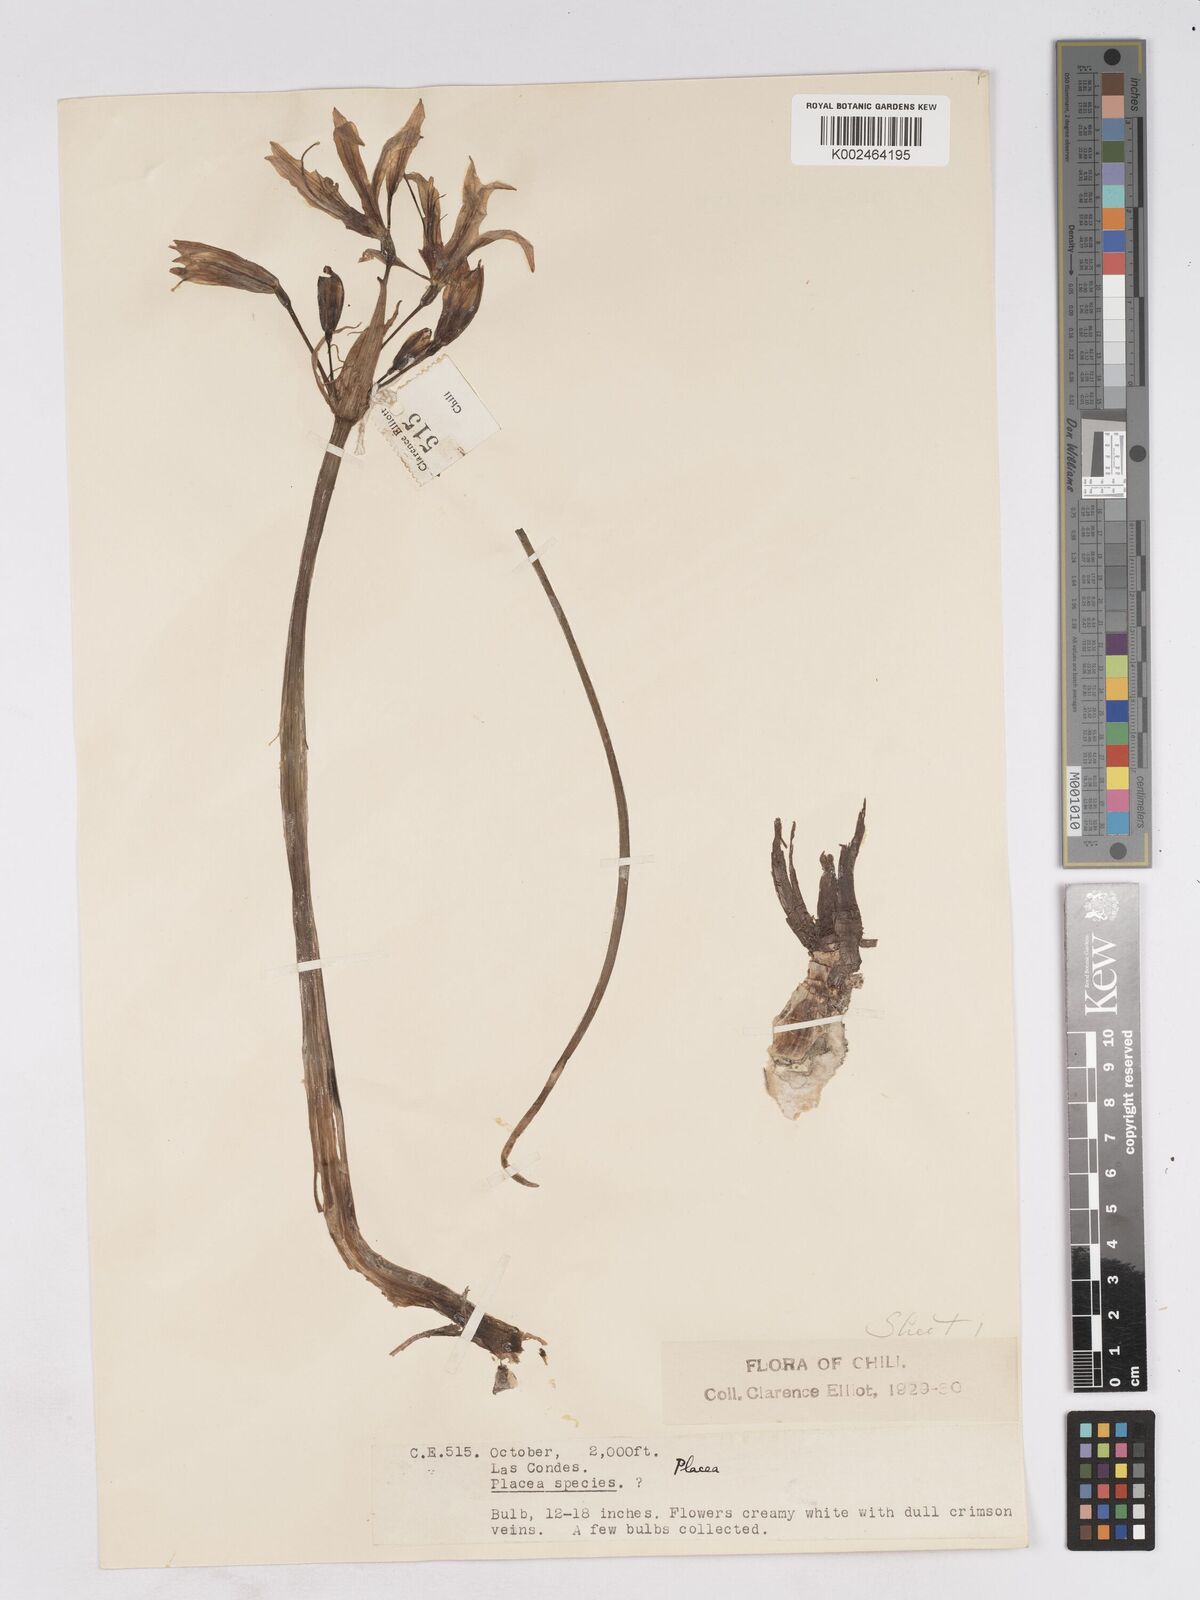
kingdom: Plantae
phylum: Tracheophyta
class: Liliopsida
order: Asparagales
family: Amaryllidaceae
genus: Phycella
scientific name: Phycella ornata
